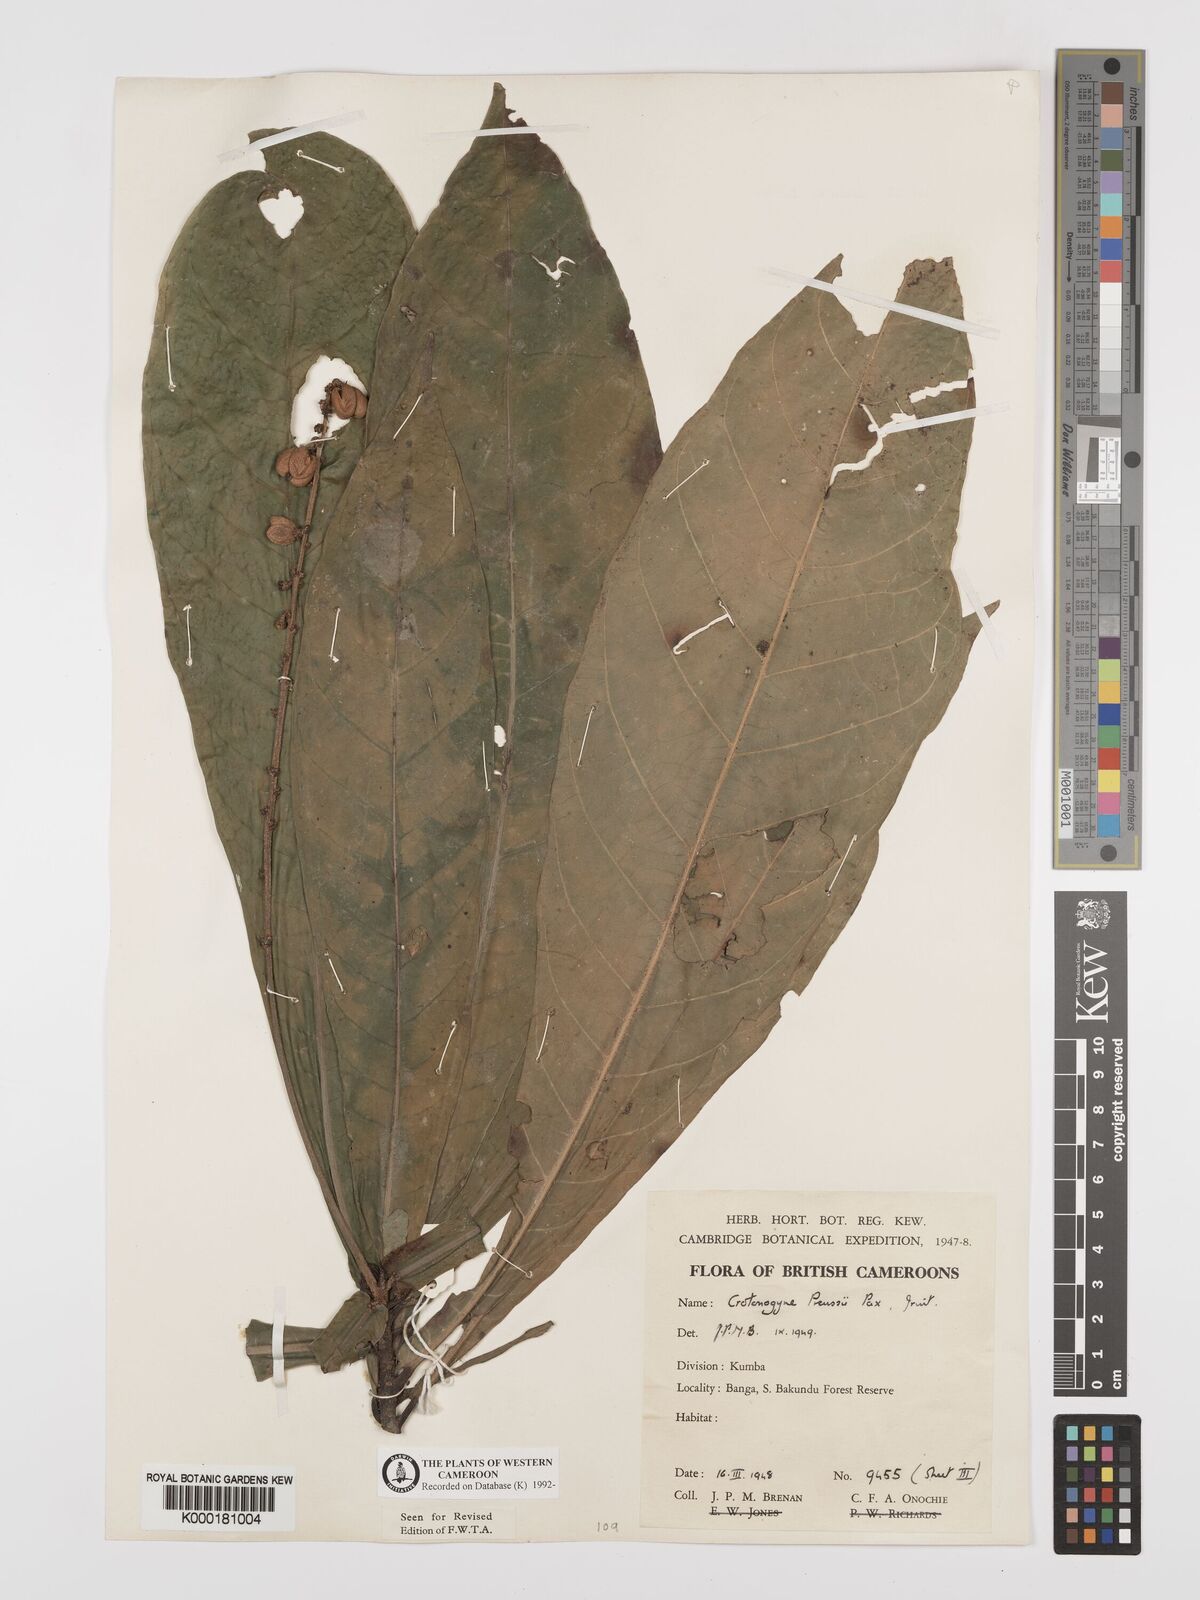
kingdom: Plantae
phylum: Tracheophyta
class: Magnoliopsida
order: Malpighiales
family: Euphorbiaceae
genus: Crotonogyne
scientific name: Crotonogyne preussii
